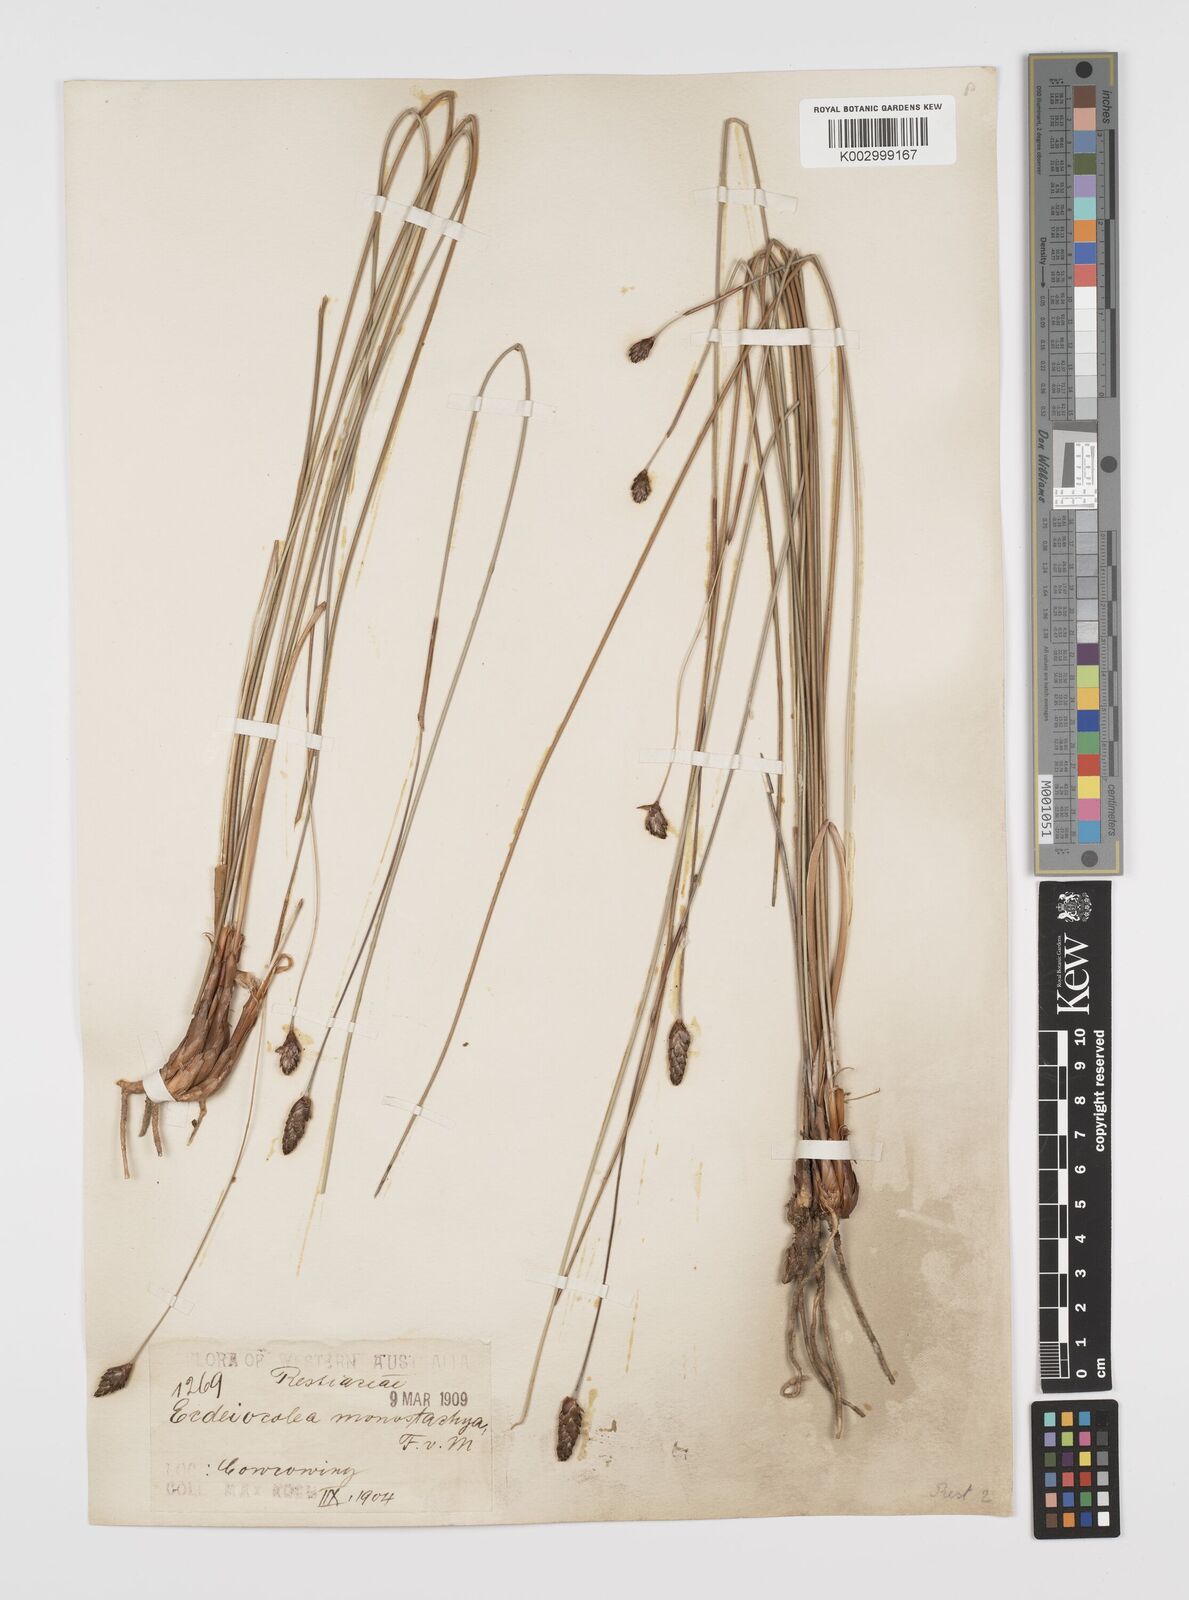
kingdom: Plantae
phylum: Tracheophyta
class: Liliopsida
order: Poales
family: Ecdeiocoleaceae
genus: Ecdeiocolea
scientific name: Ecdeiocolea monostachya
